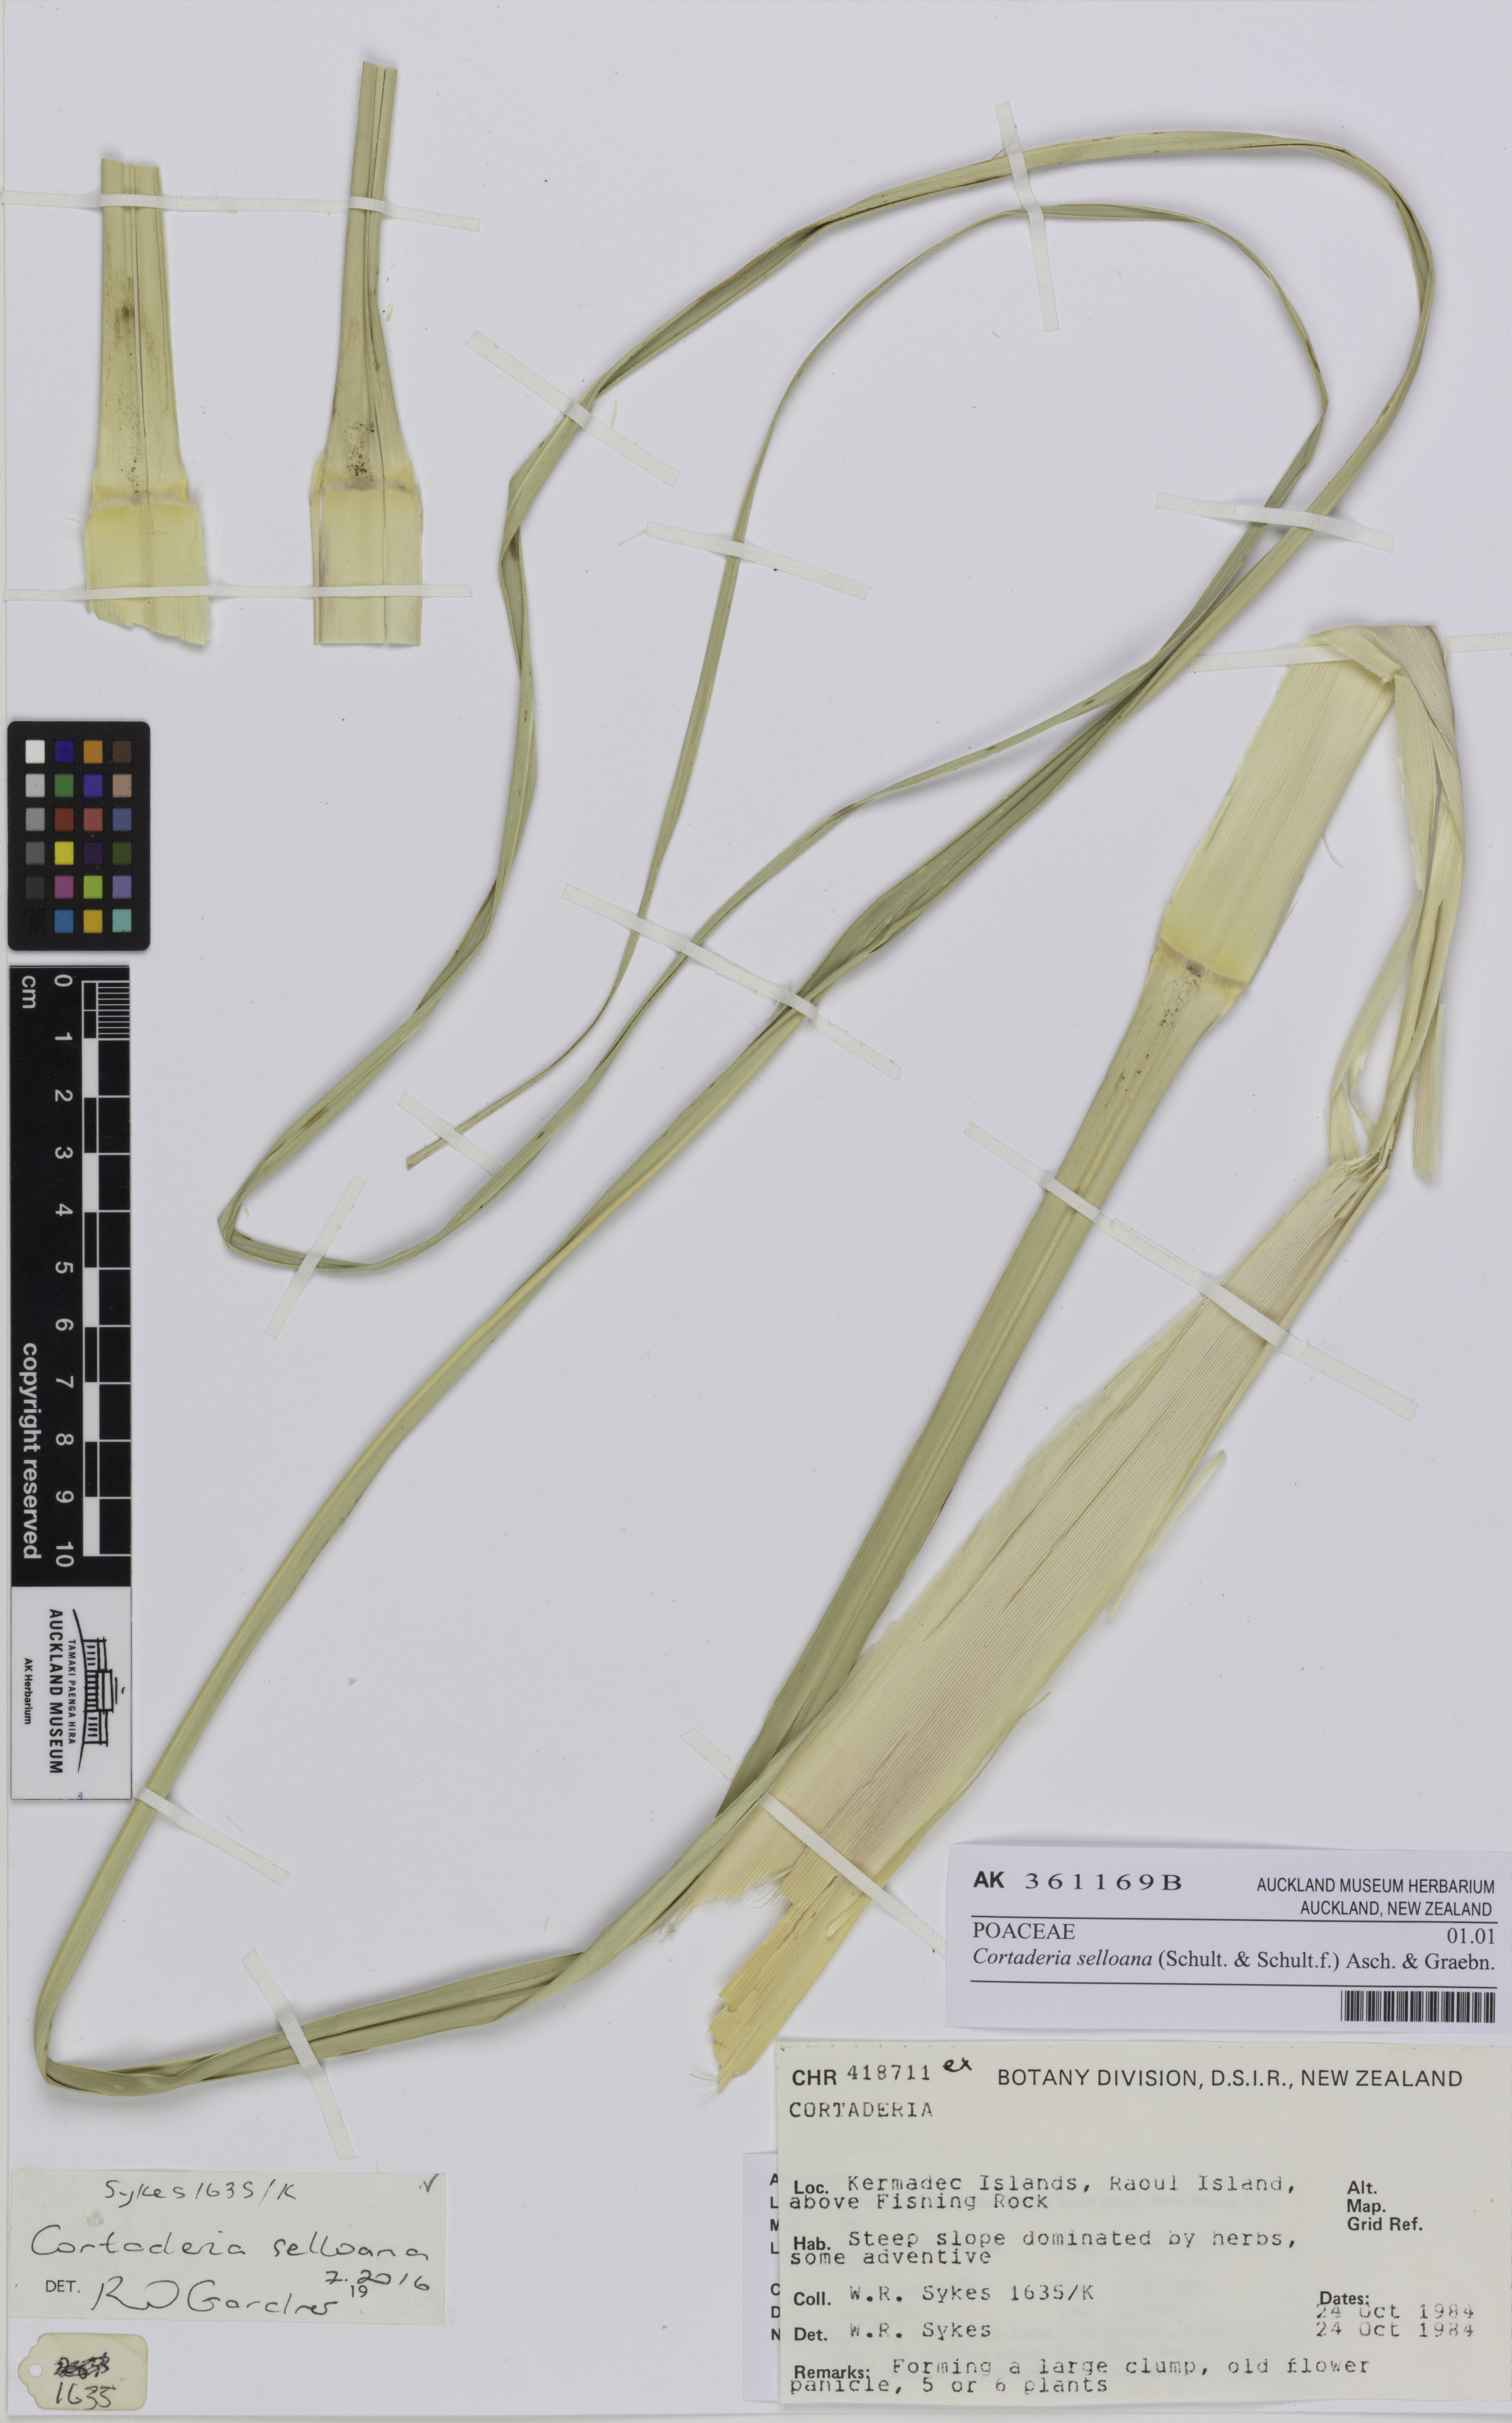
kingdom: Plantae
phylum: Tracheophyta
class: Liliopsida
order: Poales
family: Poaceae
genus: Cortaderia
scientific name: Cortaderia selloana
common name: Uruguayan pampas grass
